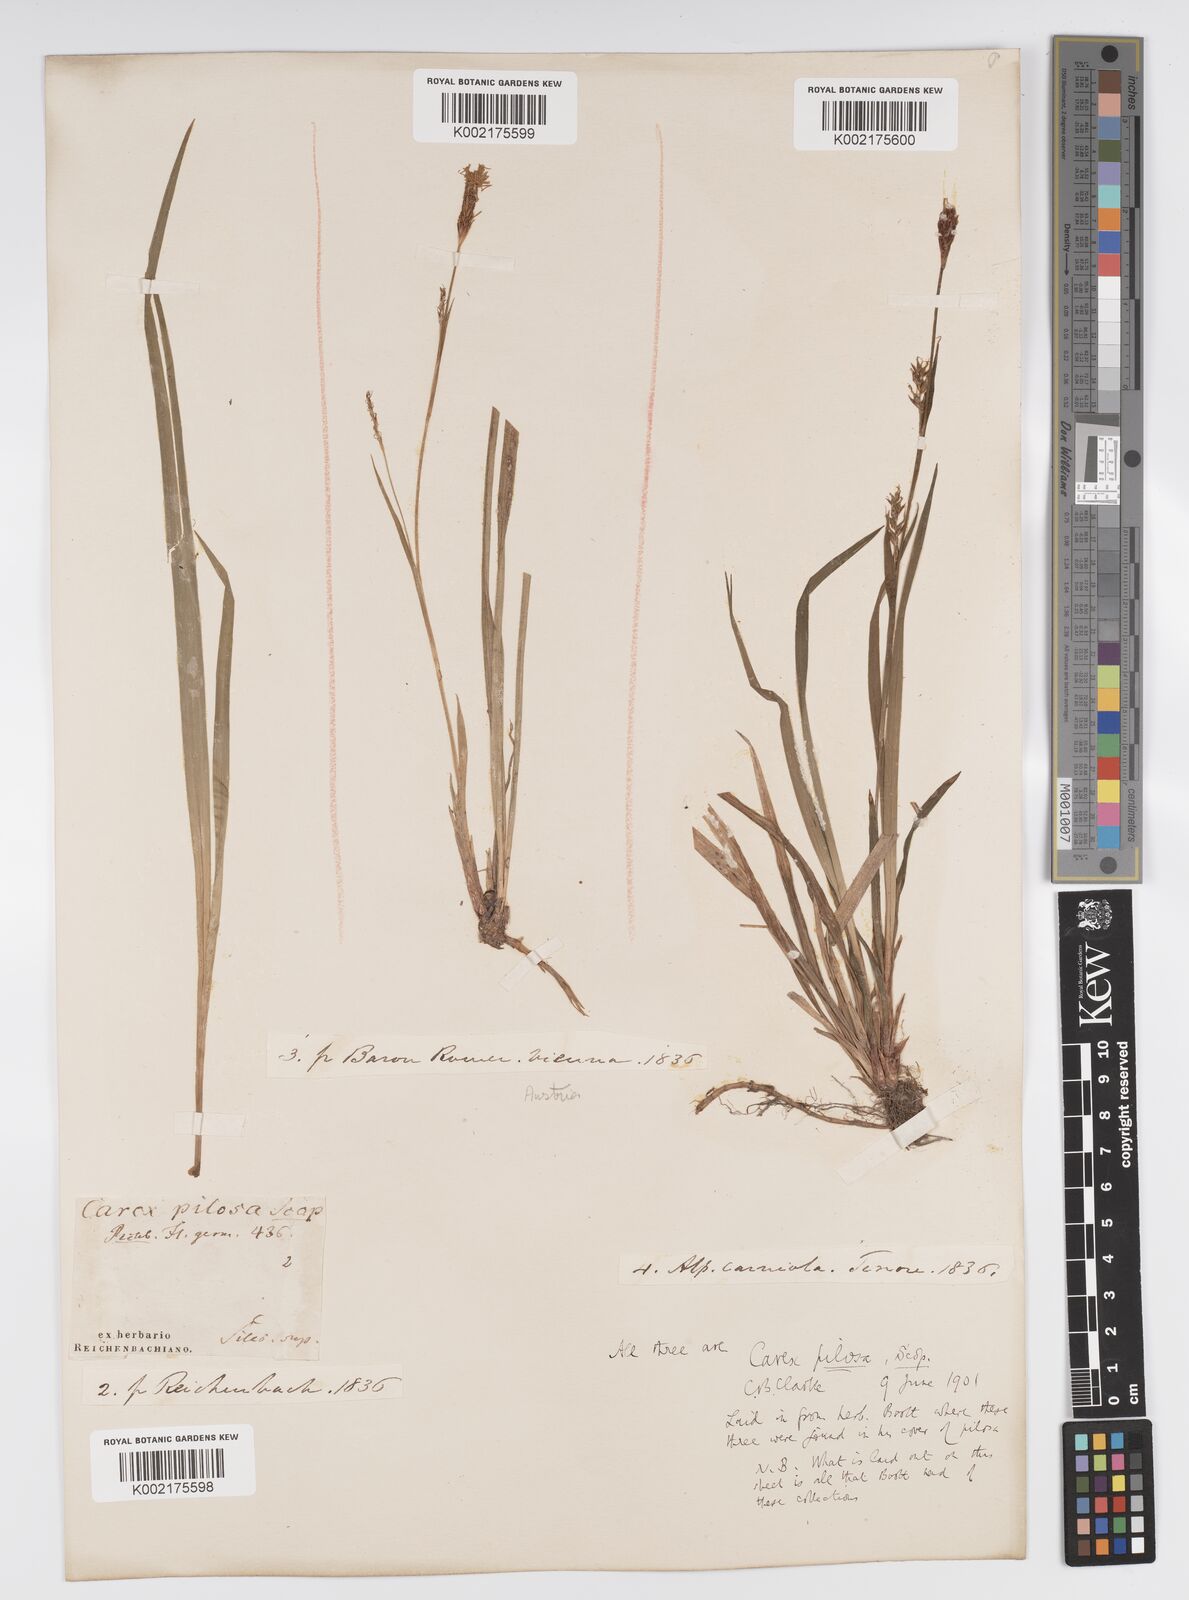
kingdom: Plantae
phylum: Tracheophyta
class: Liliopsida
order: Poales
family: Cyperaceae
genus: Carex
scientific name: Carex pilosa
